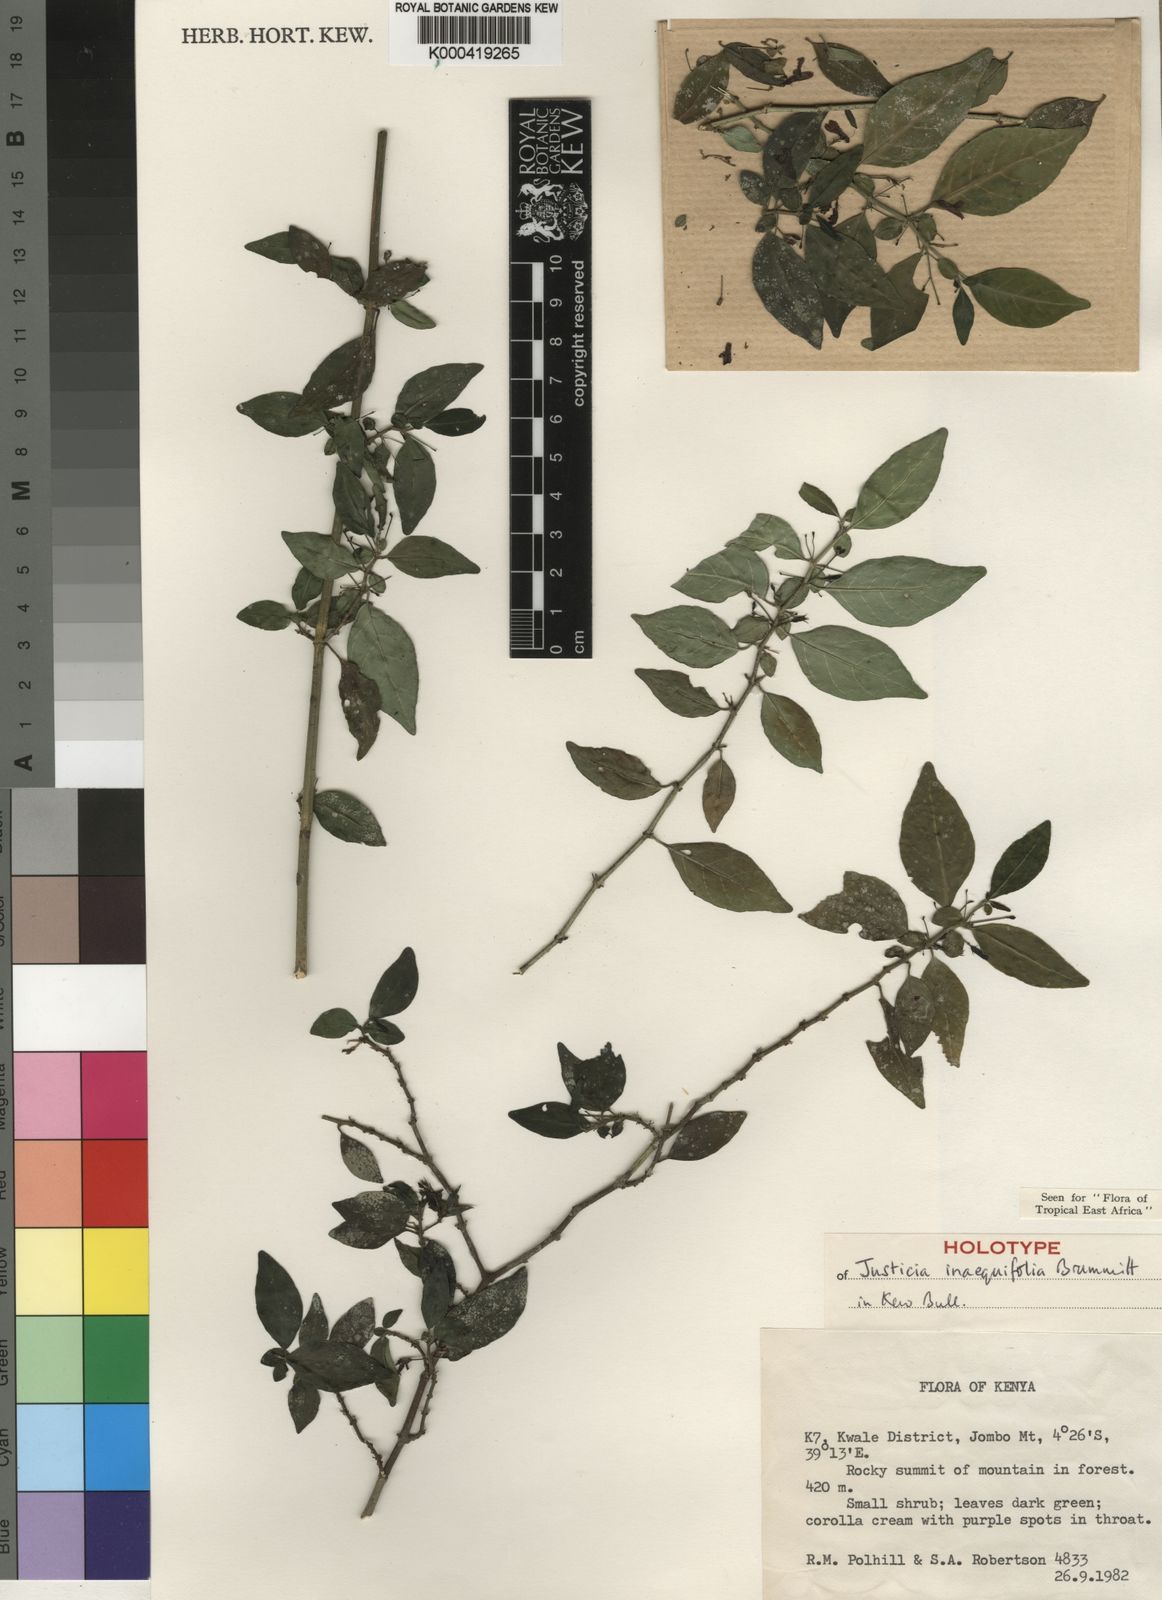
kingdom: Plantae
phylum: Tracheophyta
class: Magnoliopsida
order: Lamiales
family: Acanthaceae
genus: Justicia
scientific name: Justicia
